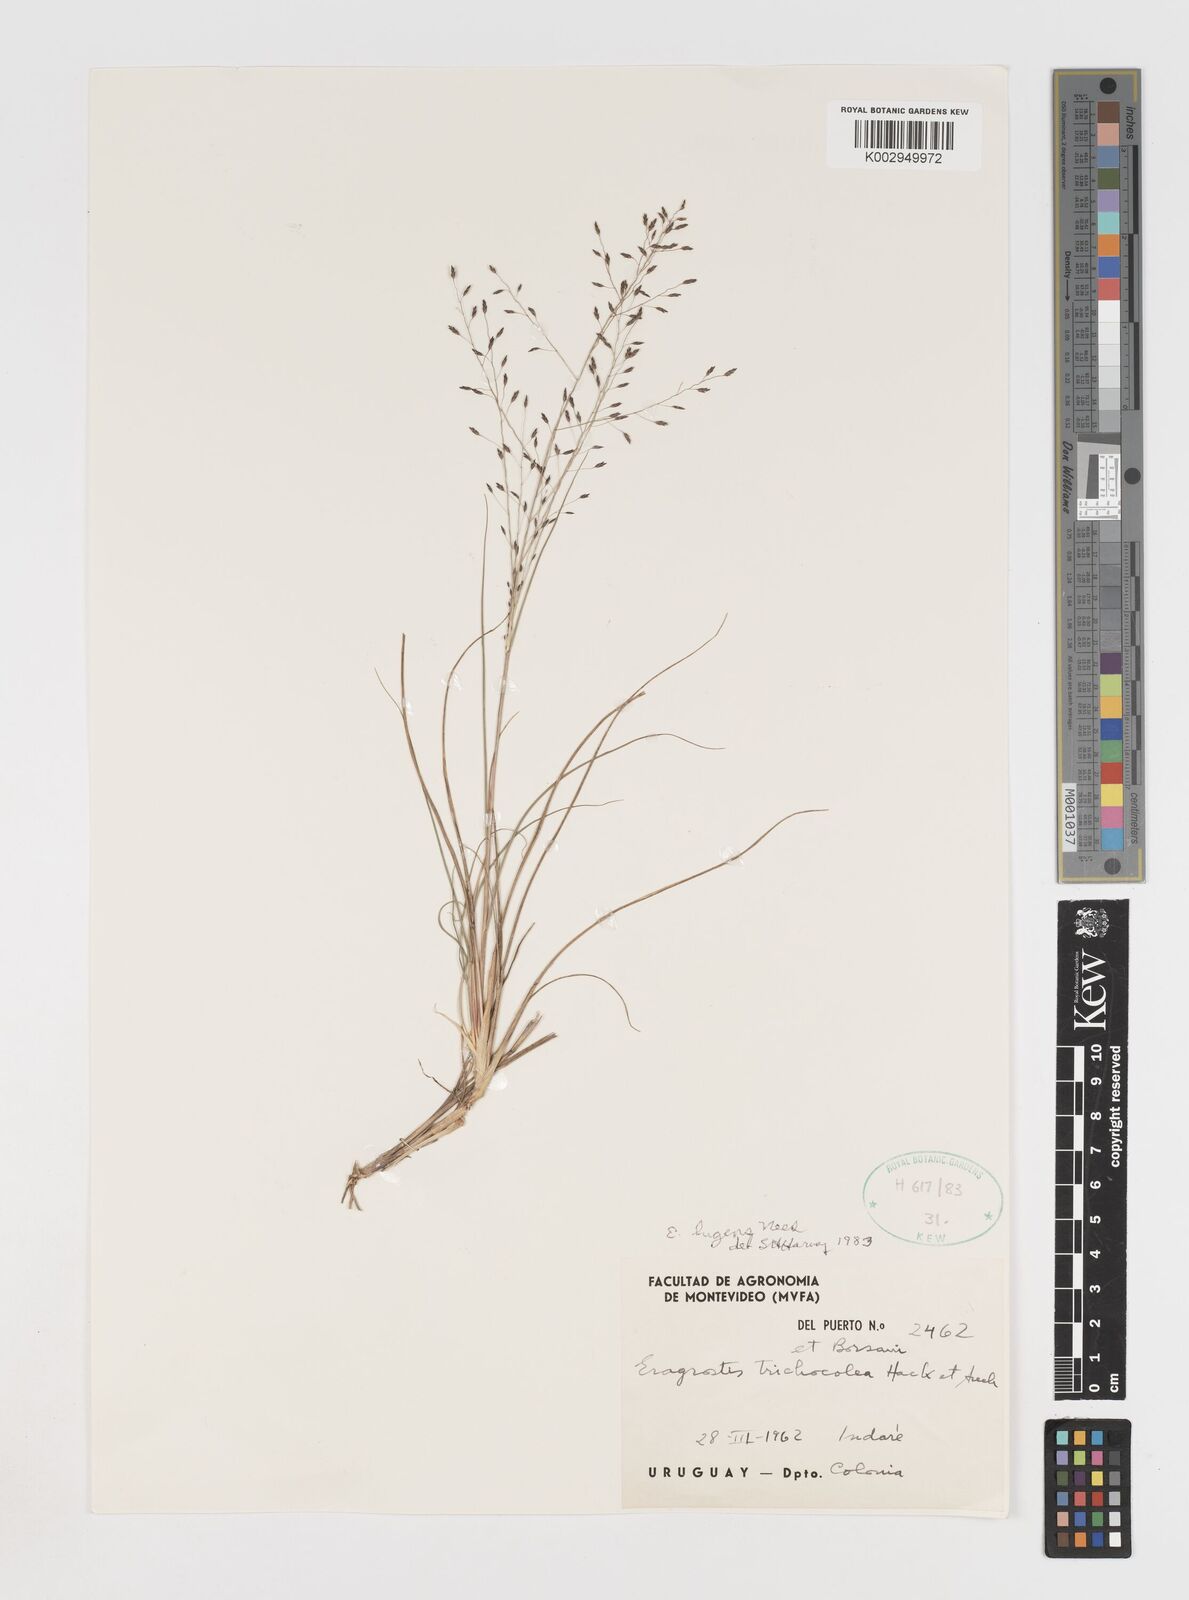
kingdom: Plantae
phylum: Tracheophyta
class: Liliopsida
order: Poales
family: Poaceae
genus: Eragrostis
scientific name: Eragrostis
